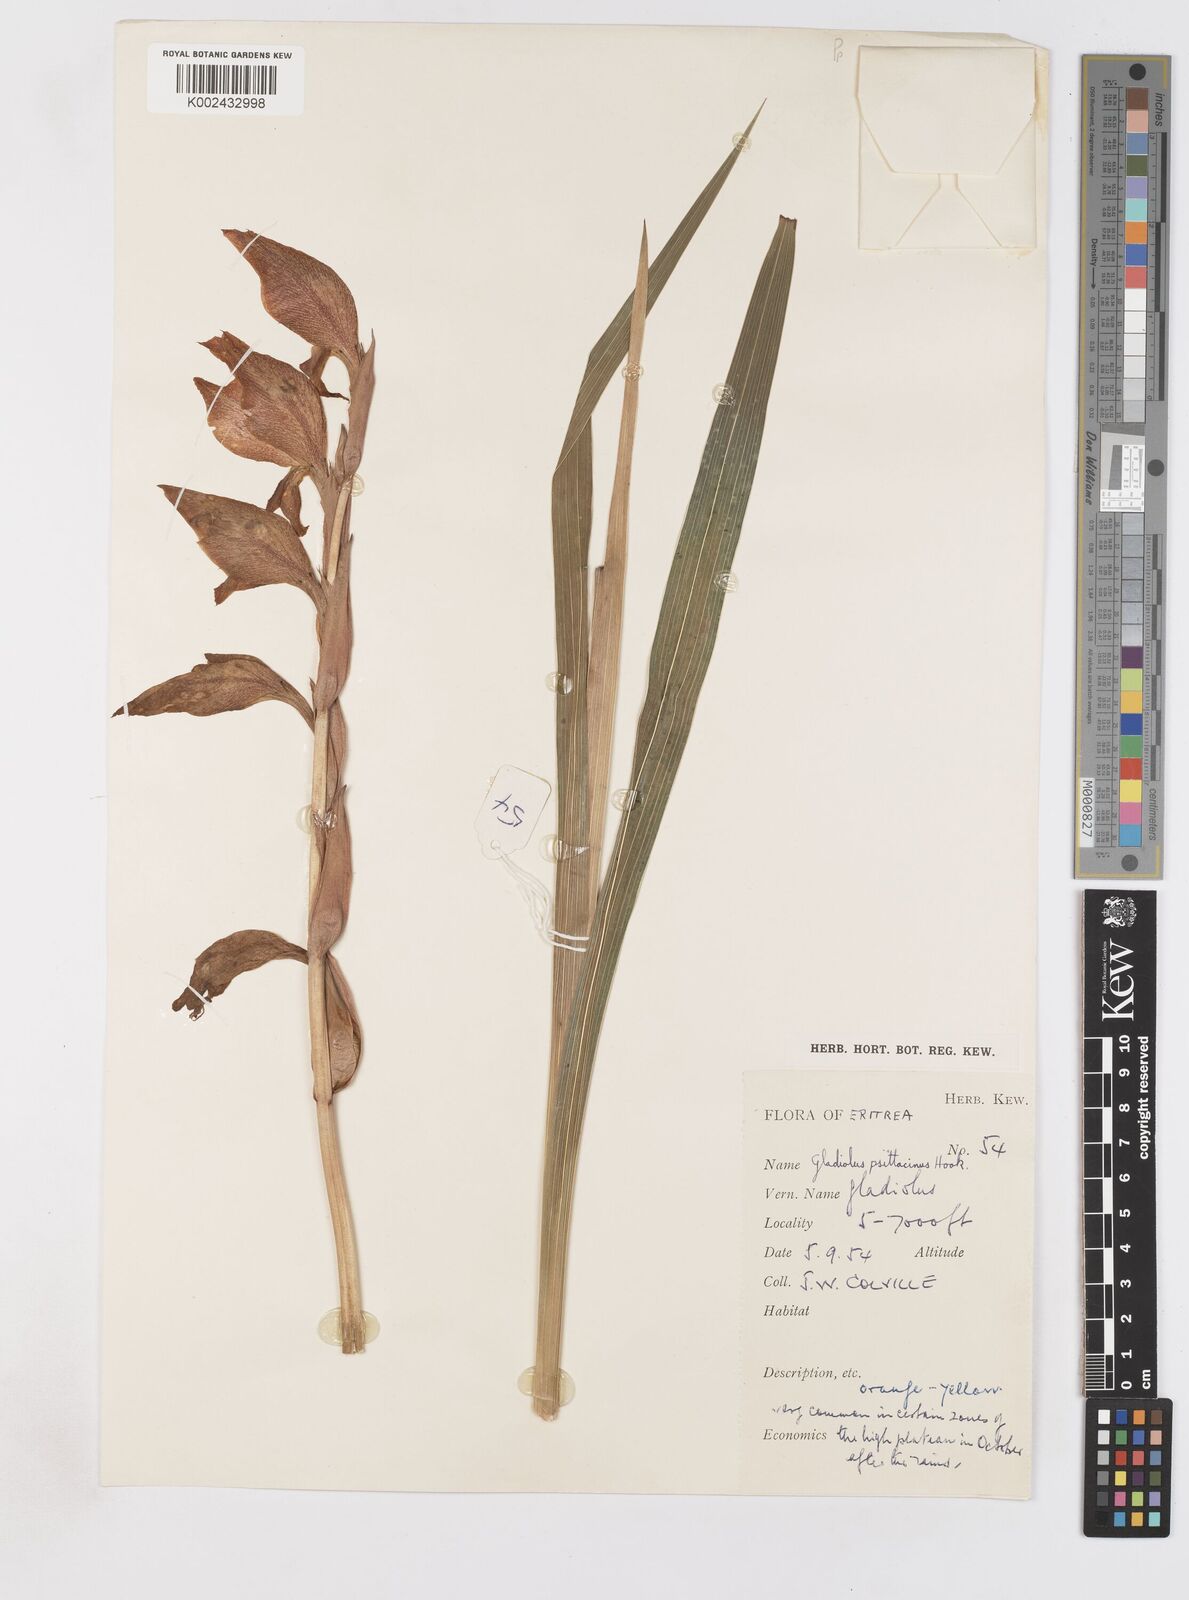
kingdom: Plantae
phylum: Tracheophyta
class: Liliopsida
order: Asparagales
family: Iridaceae
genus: Gladiolus
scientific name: Gladiolus dalenii
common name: Cornflag
